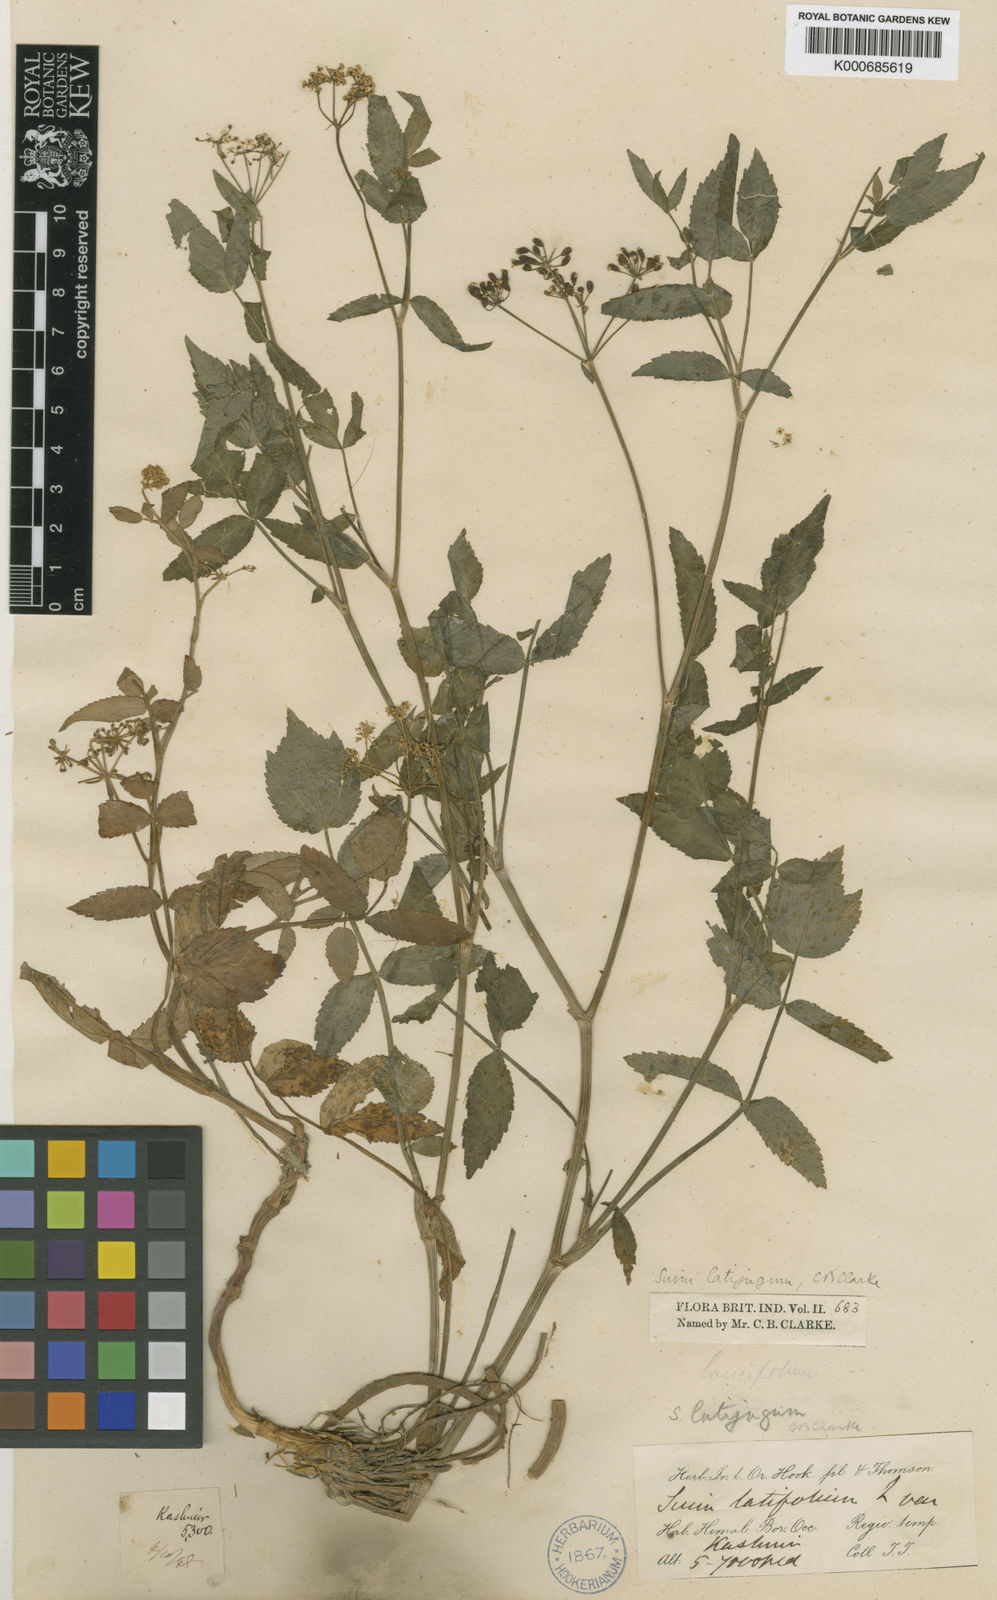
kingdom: Plantae
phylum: Tracheophyta
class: Magnoliopsida
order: Apiales
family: Apiaceae
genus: Sium
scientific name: Sium sisarum
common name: Skirret
